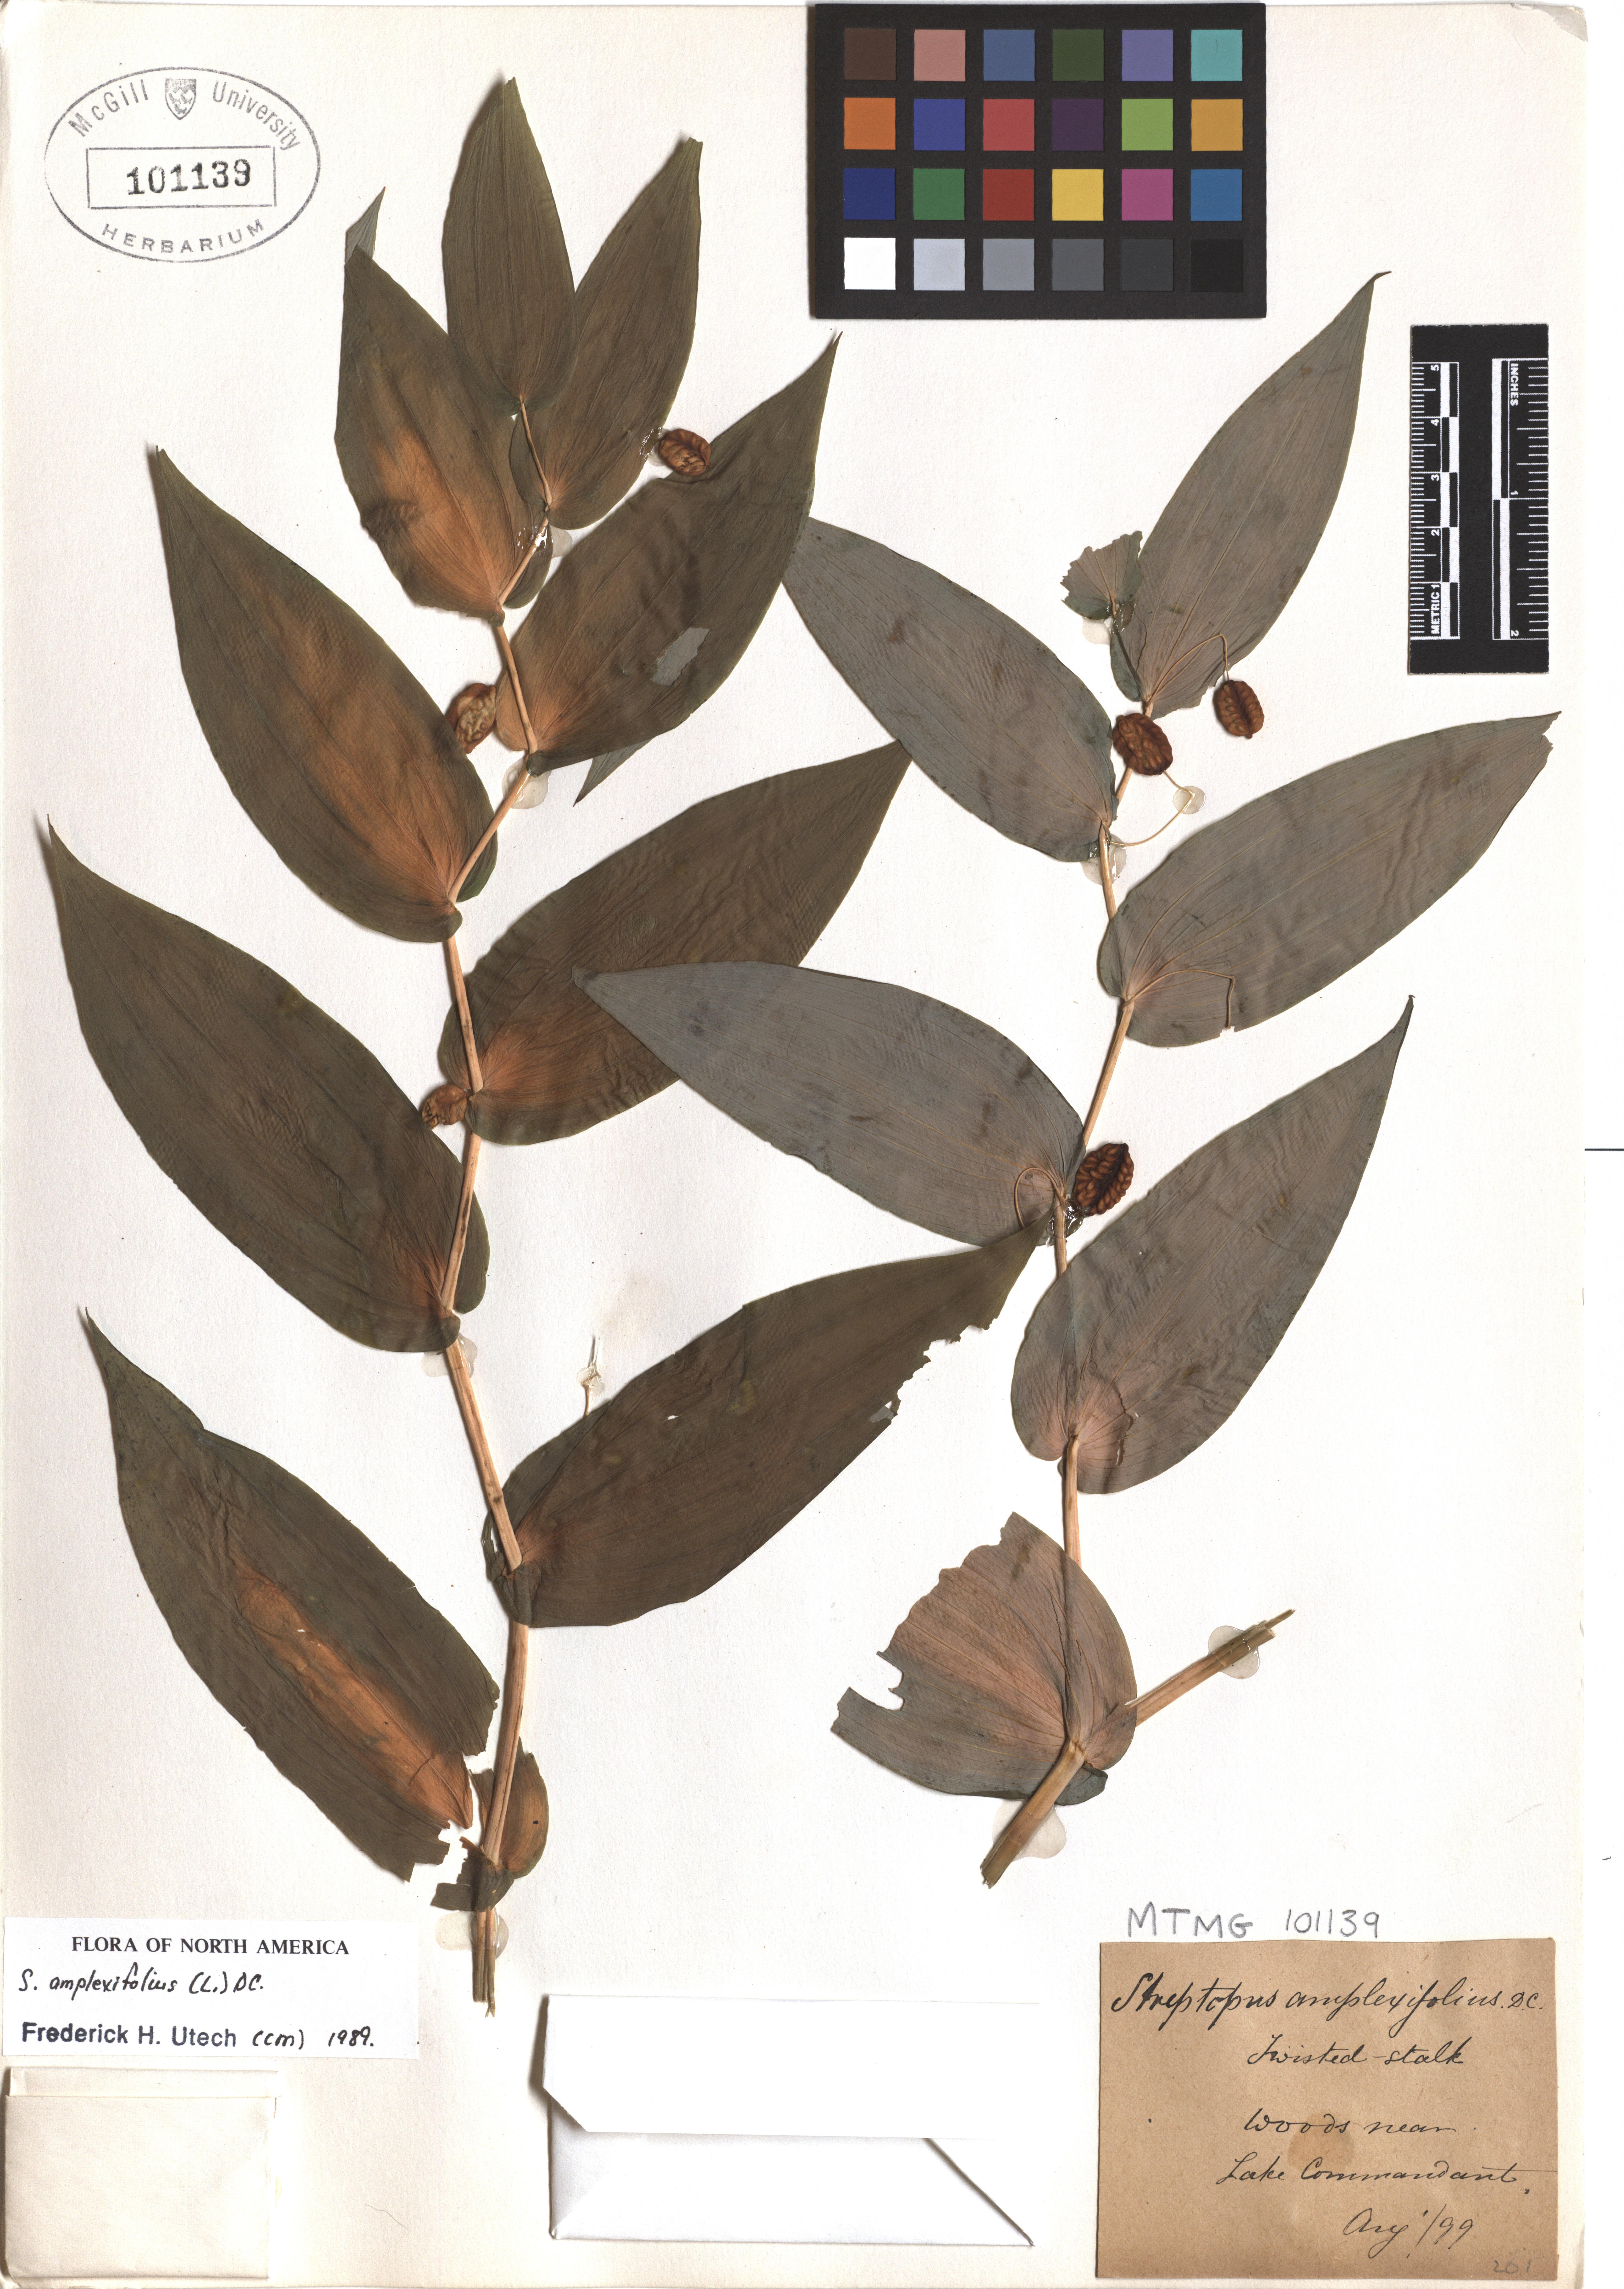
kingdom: Plantae
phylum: Tracheophyta
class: Liliopsida
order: Liliales
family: Liliaceae
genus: Streptopus
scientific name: Streptopus amplexifolius
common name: Clasp twisted stalk
